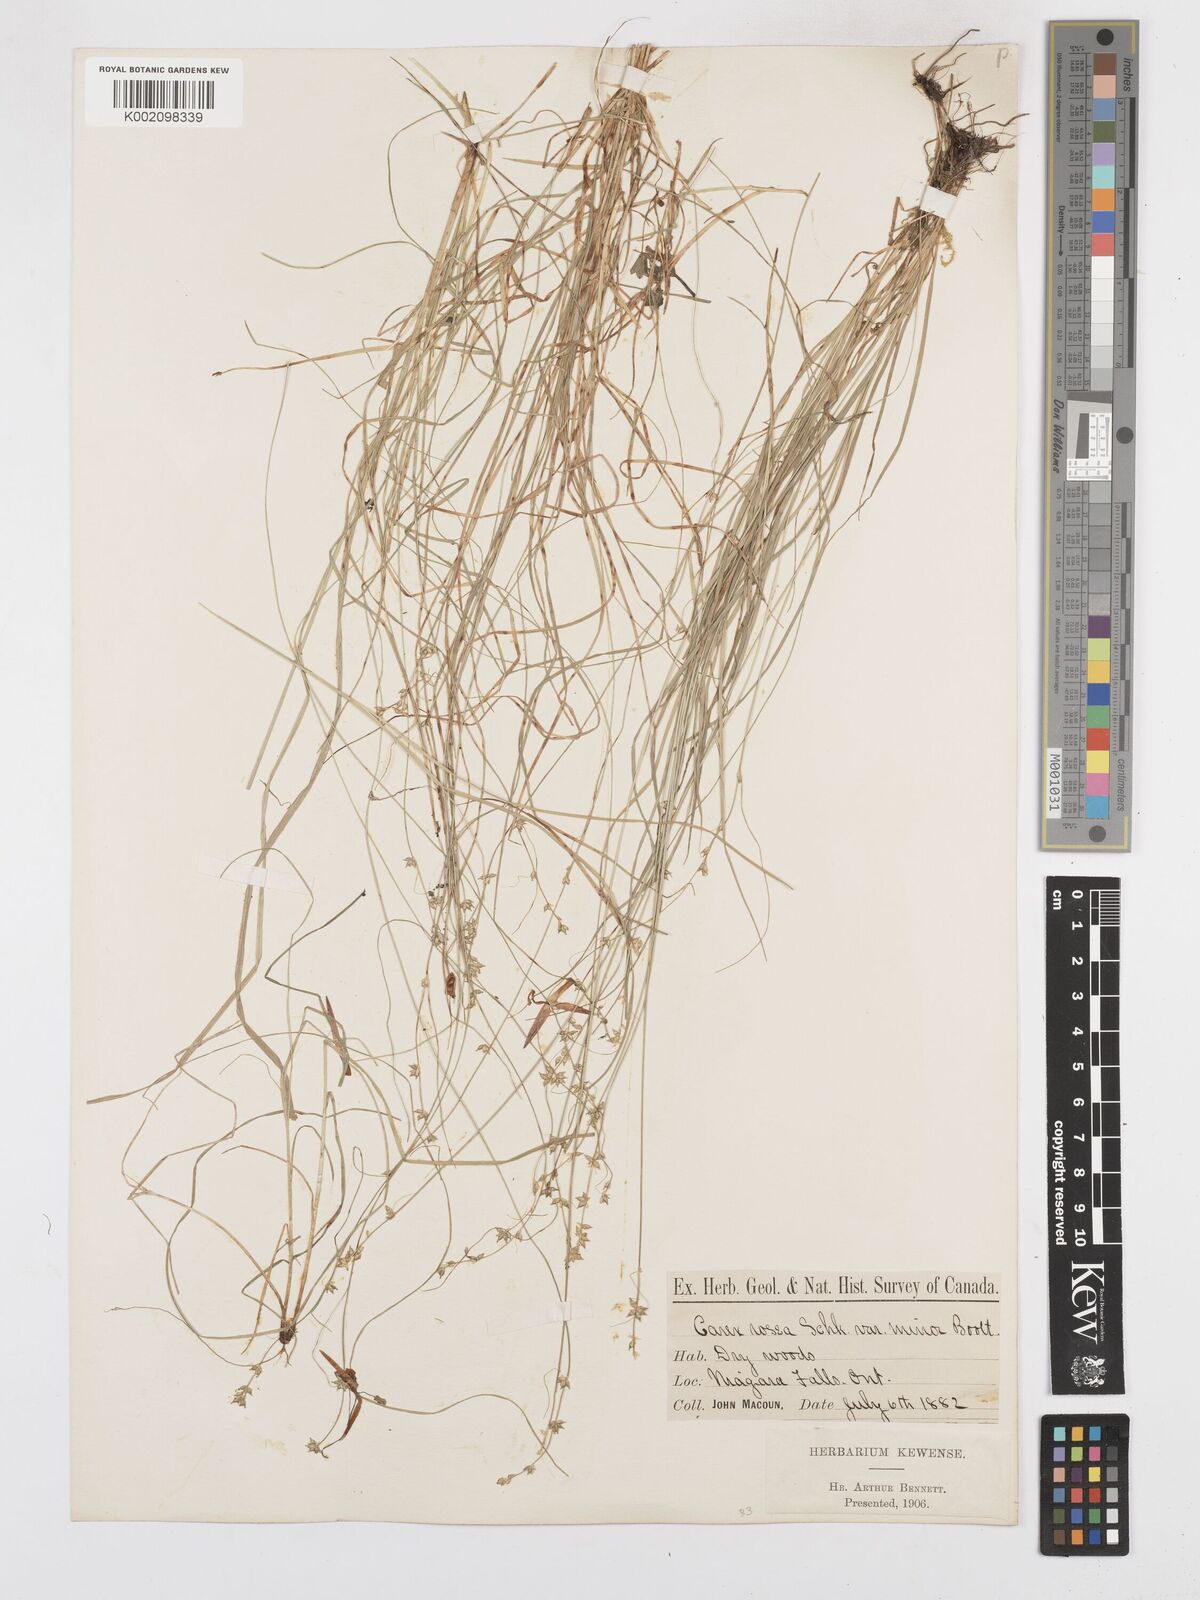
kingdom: Plantae
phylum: Tracheophyta
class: Liliopsida
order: Poales
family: Cyperaceae
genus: Carex
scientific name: Carex rosea
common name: Curly-styled wood sedge
